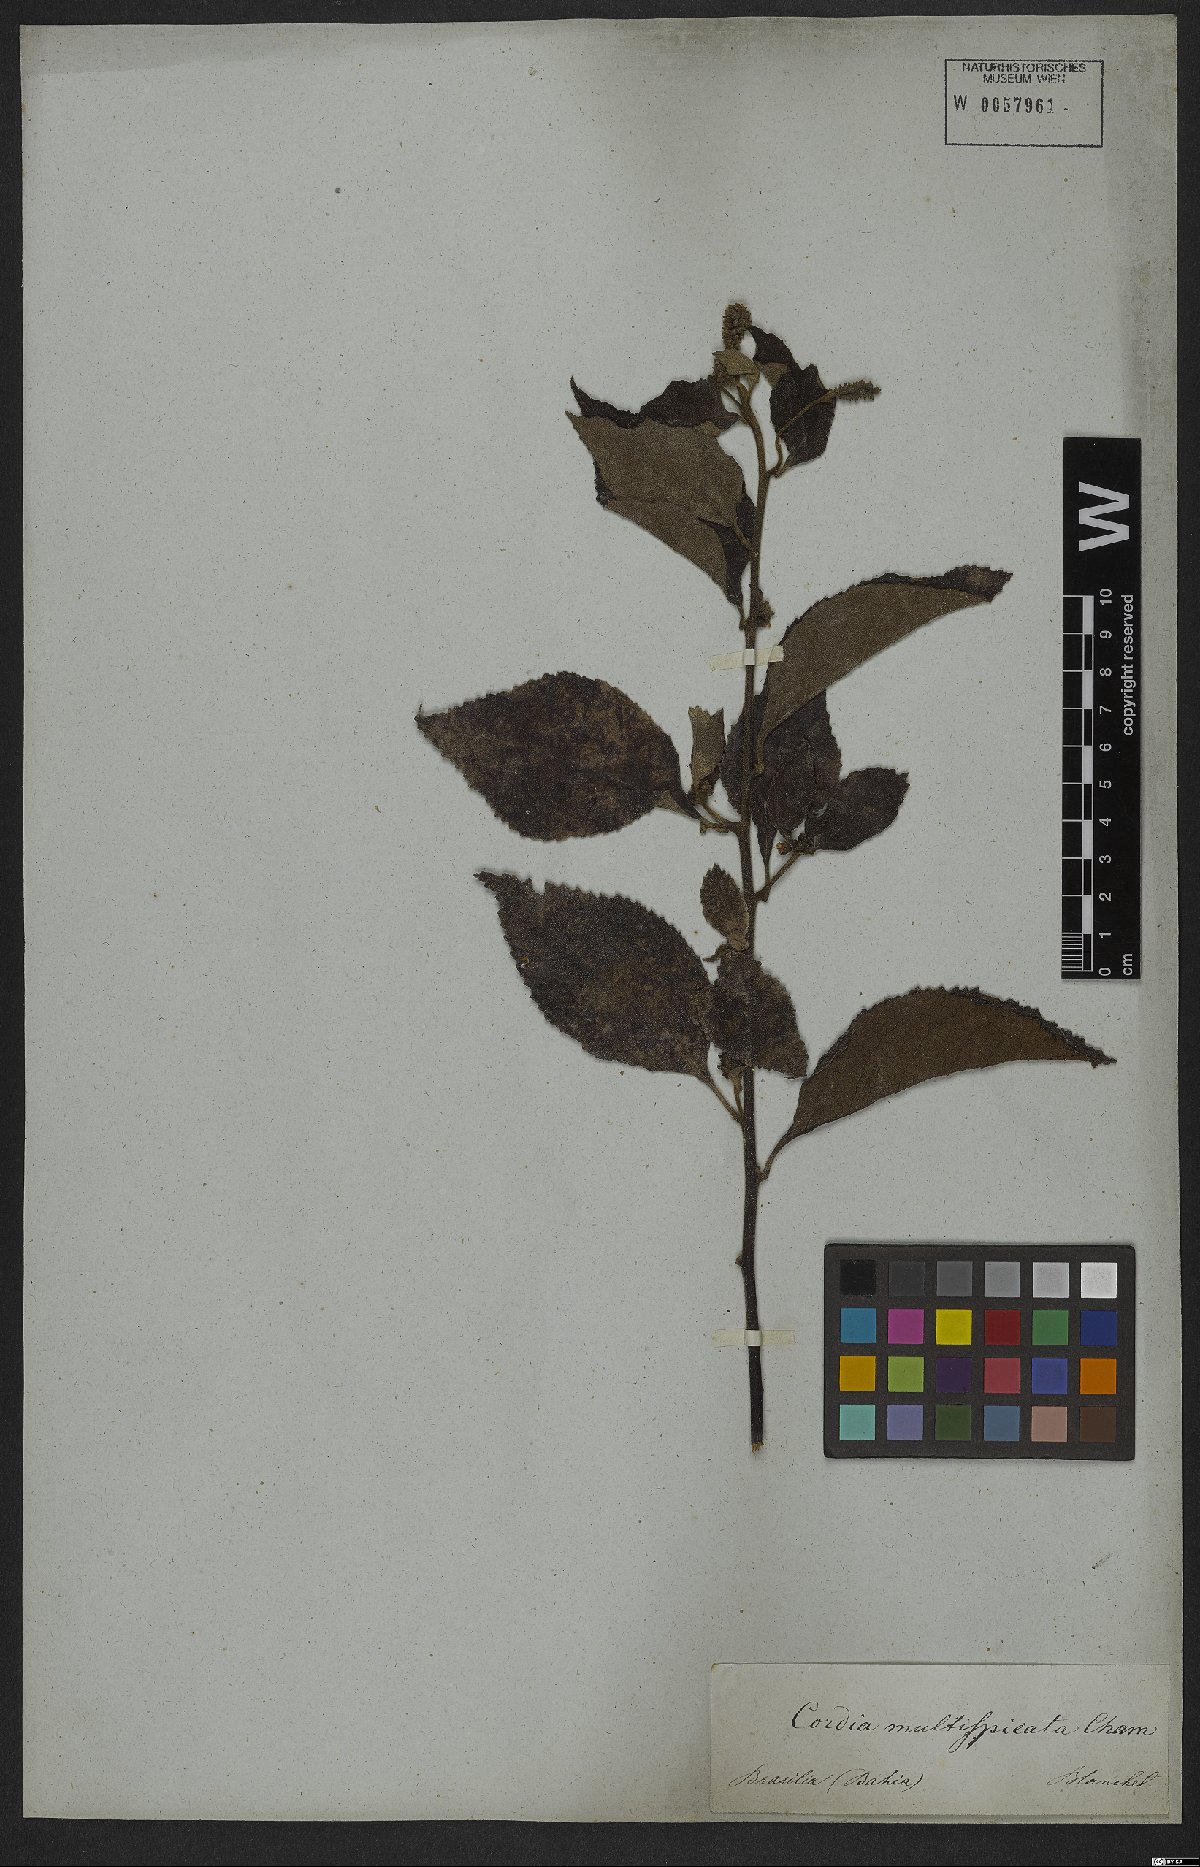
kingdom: Plantae
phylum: Tracheophyta
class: Magnoliopsida
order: Boraginales
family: Cordiaceae
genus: Varronia
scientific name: Varronia multispicata
